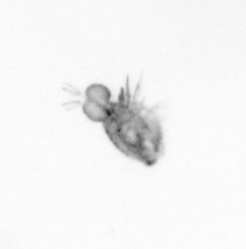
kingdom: Animalia
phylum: Arthropoda
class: Copepoda
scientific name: Copepoda
